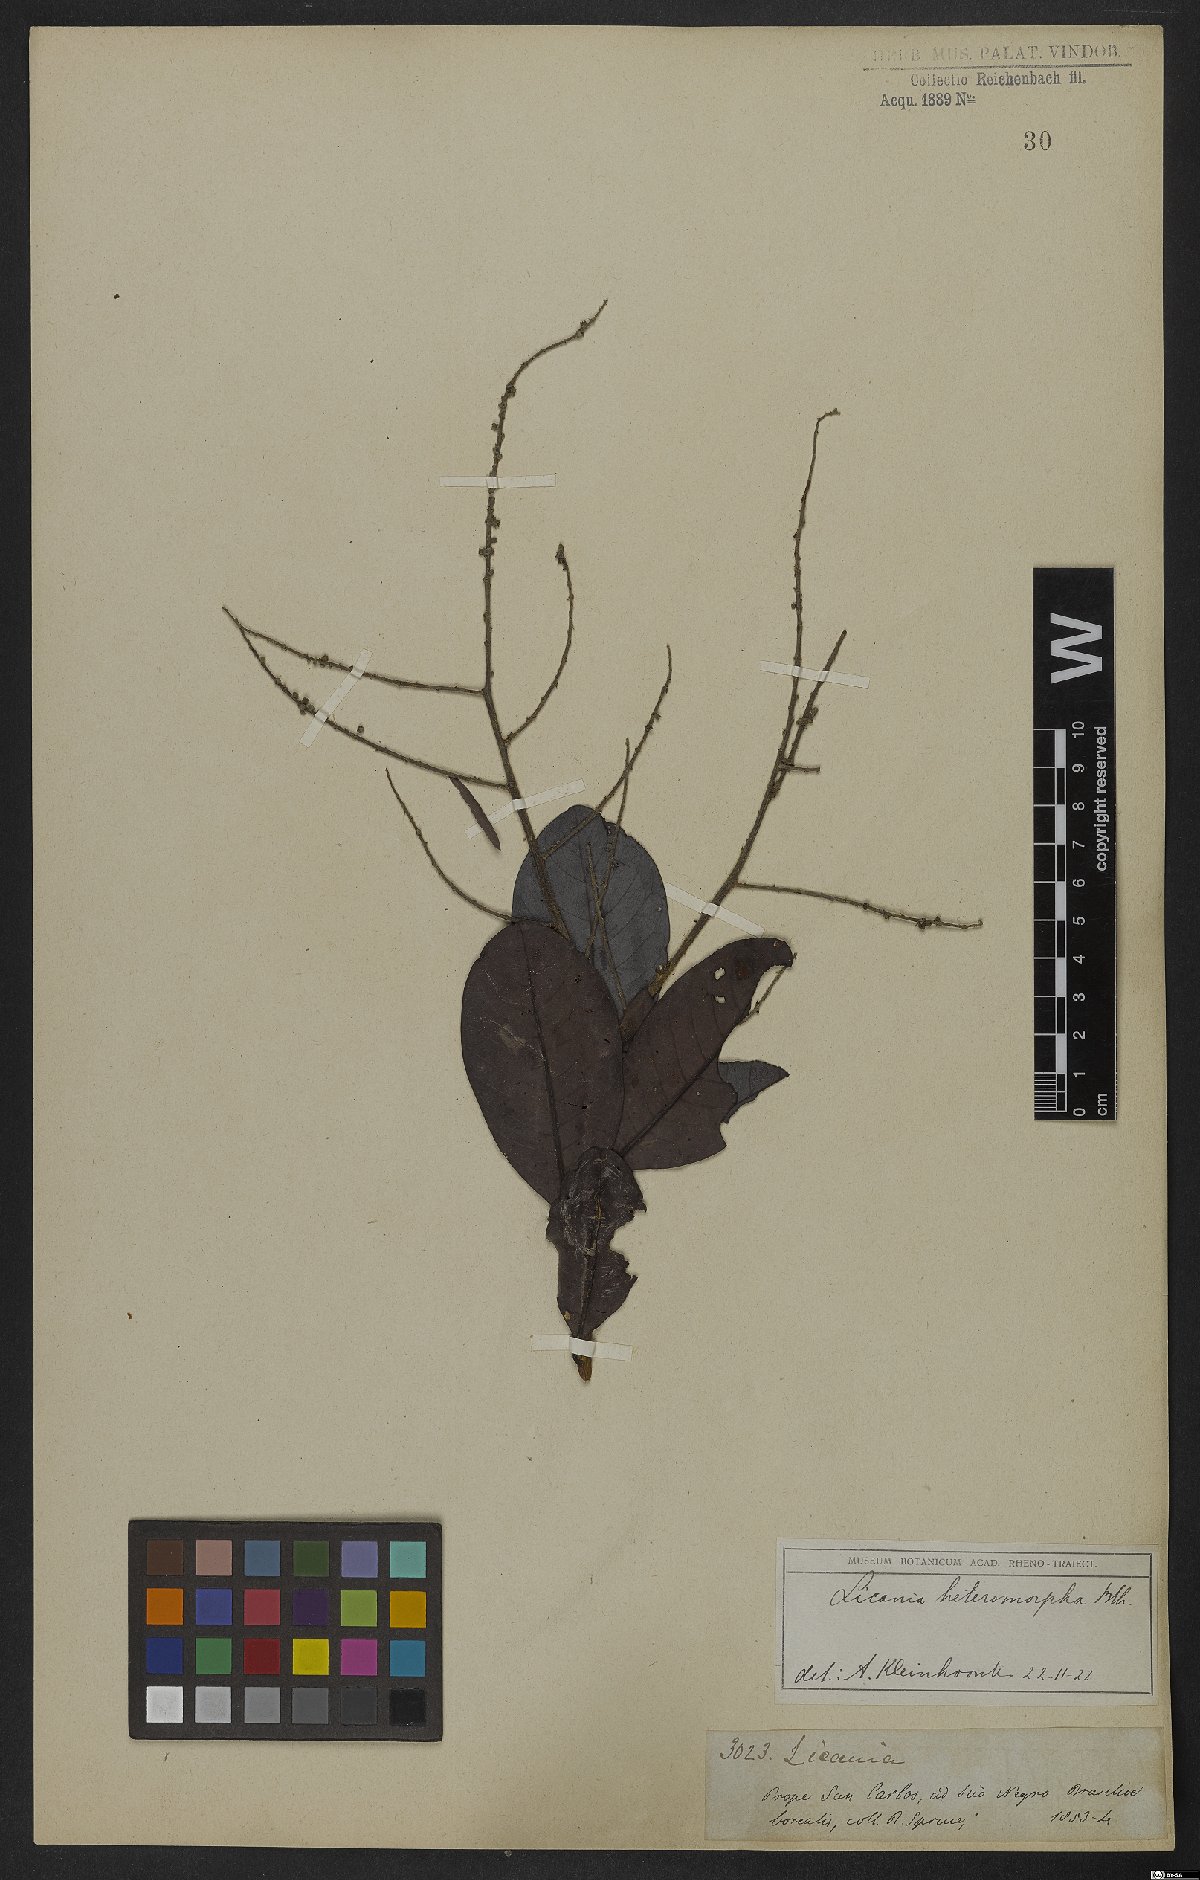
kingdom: Plantae
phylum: Tracheophyta
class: Magnoliopsida
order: Malpighiales
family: Chrysobalanaceae
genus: Hymenopus
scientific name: Hymenopus heteromorphus
